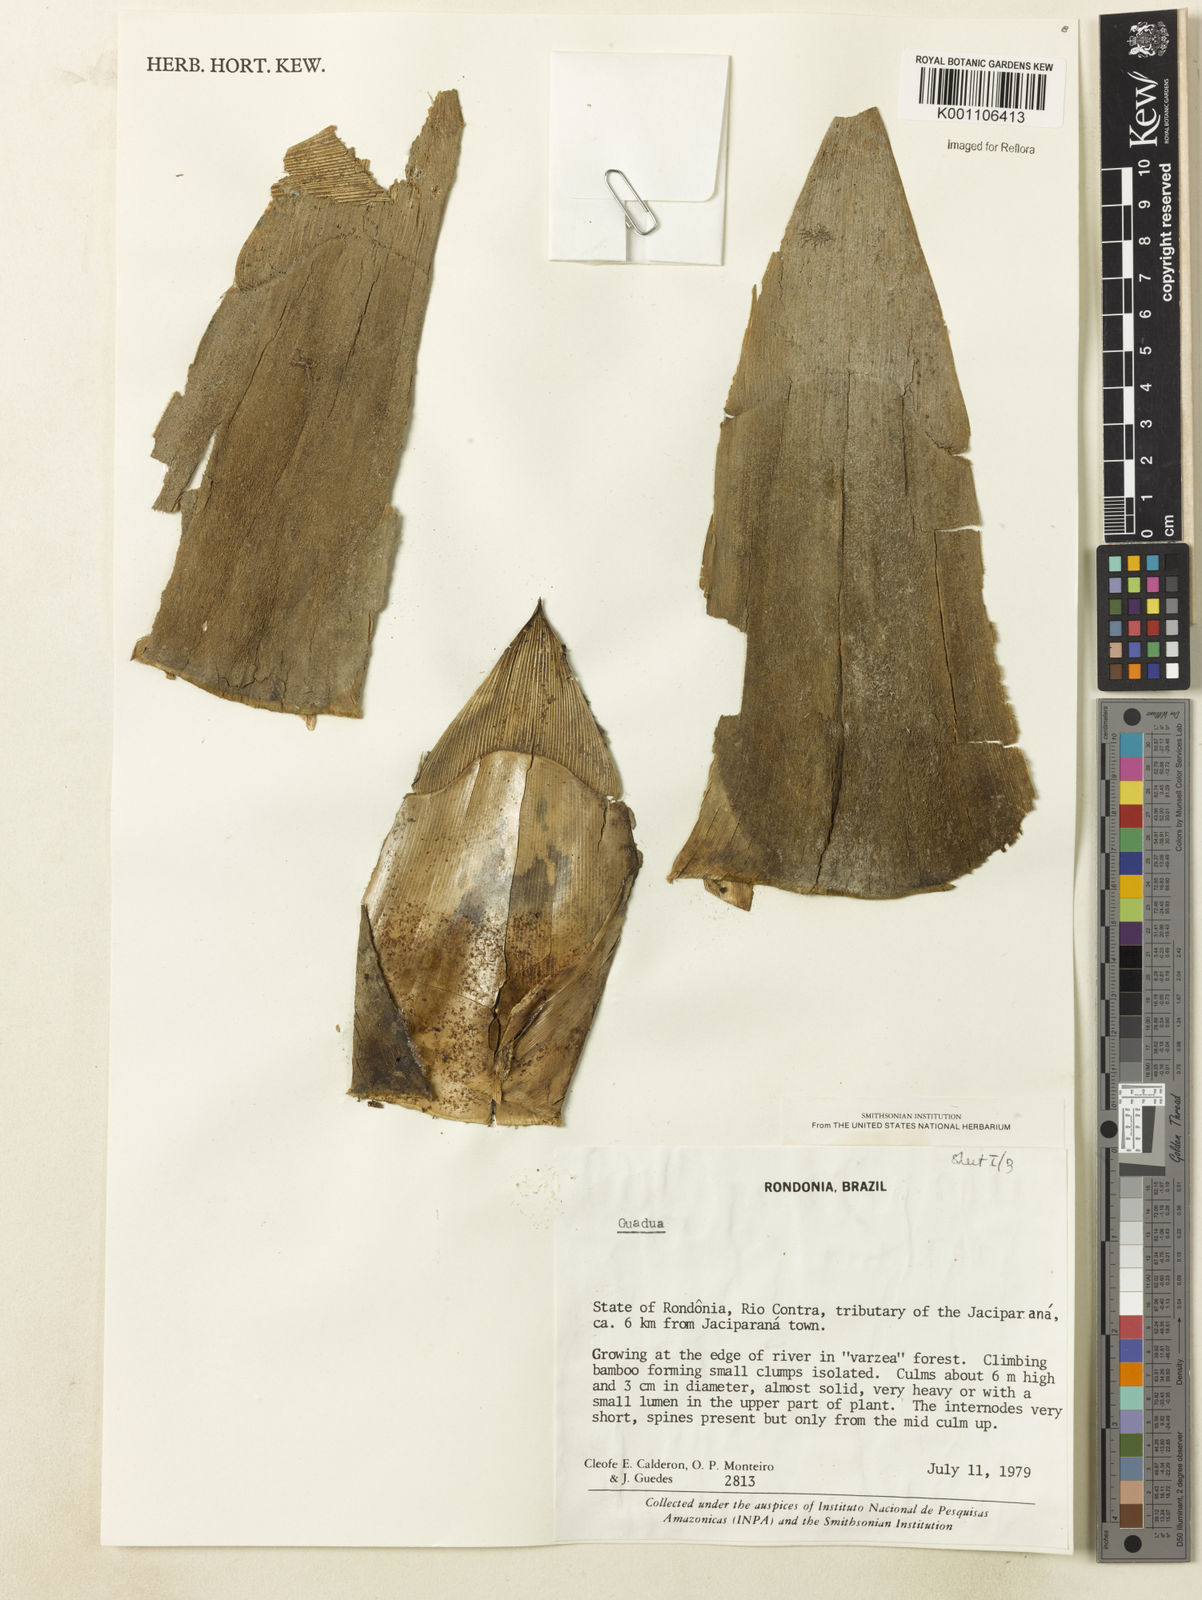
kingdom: Plantae
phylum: Tracheophyta
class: Liliopsida
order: Poales
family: Poaceae
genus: Guadua
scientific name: Guadua
